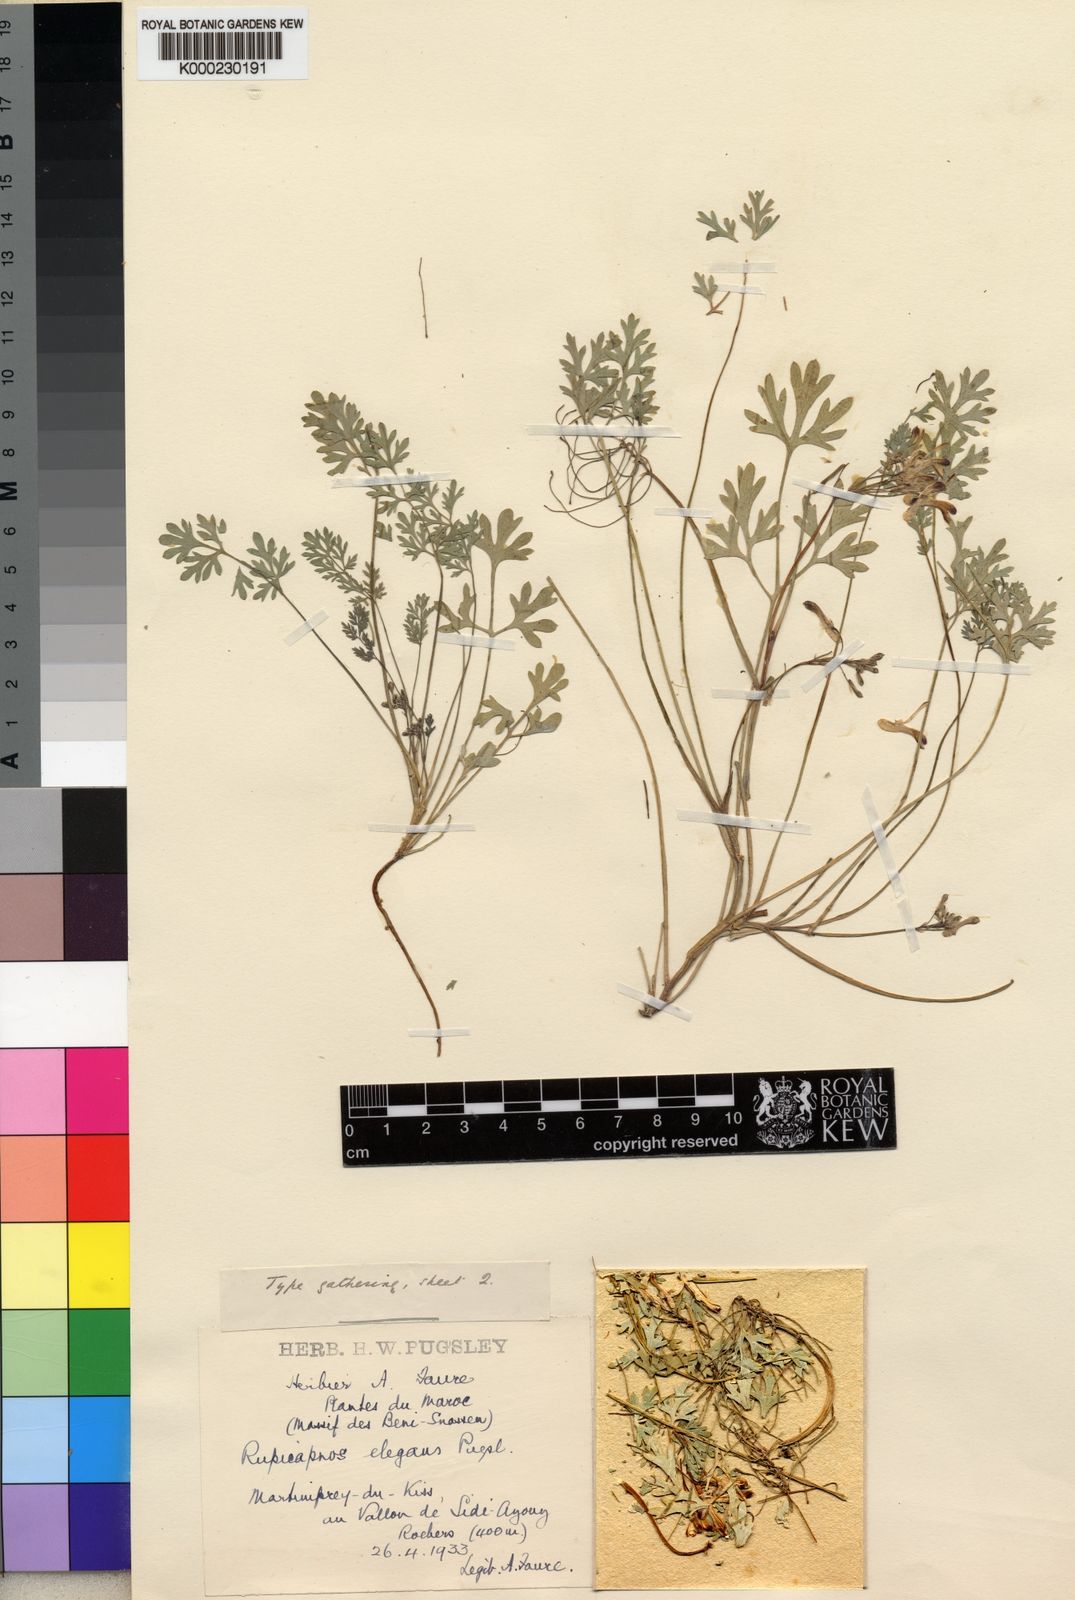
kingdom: Plantae
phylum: Tracheophyta
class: Magnoliopsida
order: Ranunculales
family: Papaveraceae
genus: Rupicapnos
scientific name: Rupicapnos africana
